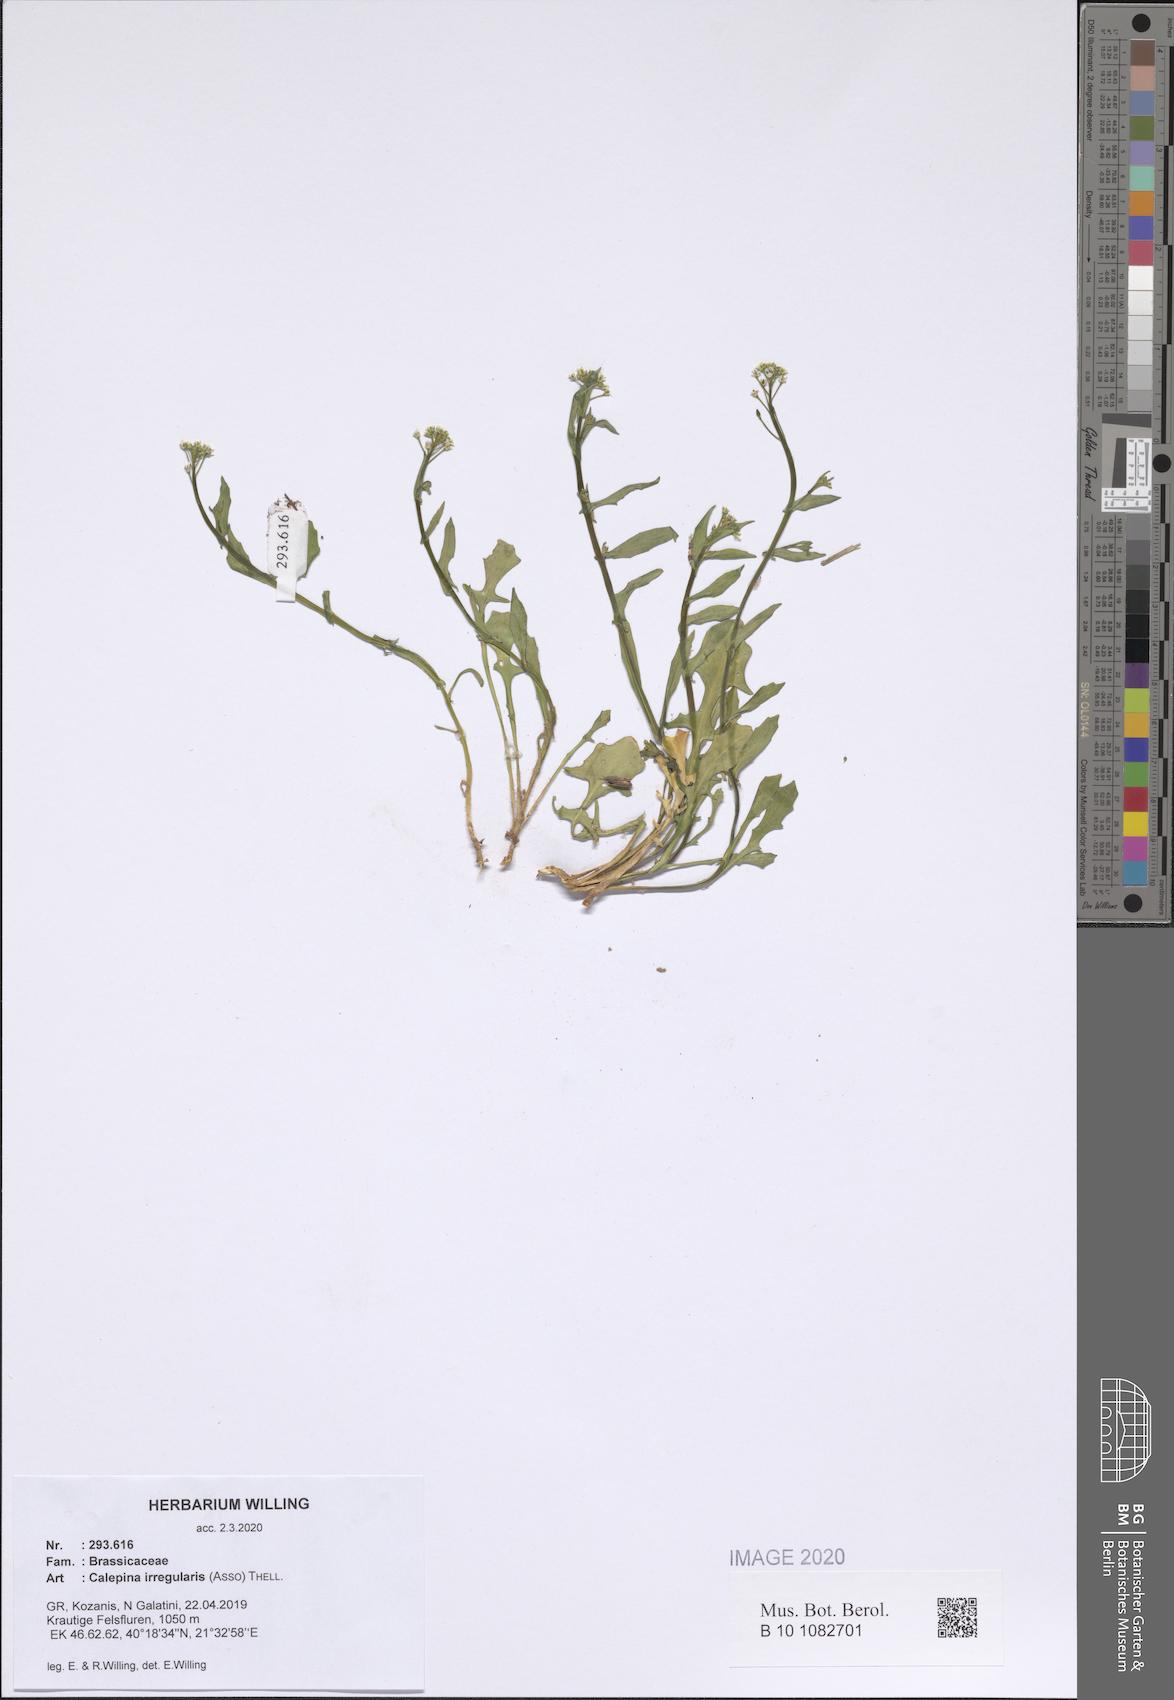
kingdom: Plantae
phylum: Tracheophyta
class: Magnoliopsida
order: Brassicales
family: Brassicaceae
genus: Calepina
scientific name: Calepina irregularis
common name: White ballmustard
